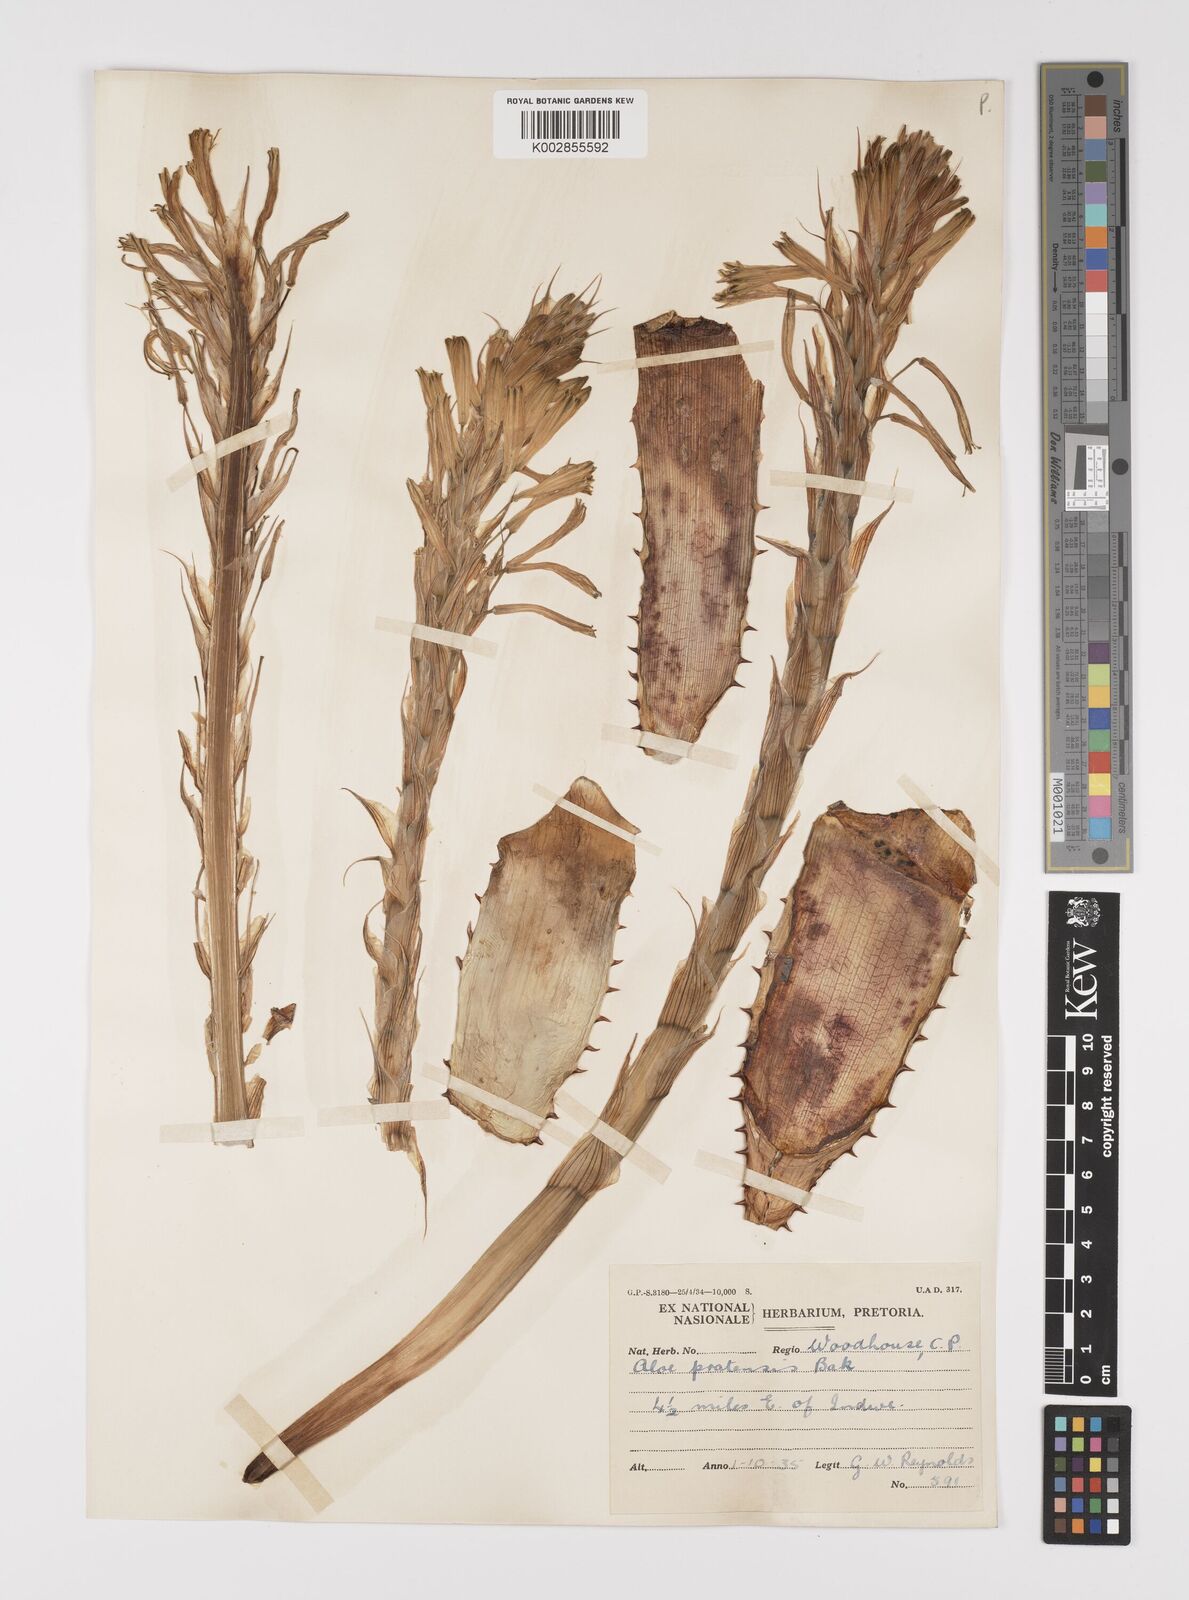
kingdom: Plantae
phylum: Tracheophyta
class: Liliopsida
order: Asparagales
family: Asphodelaceae
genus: Aloe
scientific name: Aloe pratensis
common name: Meadow aloe
